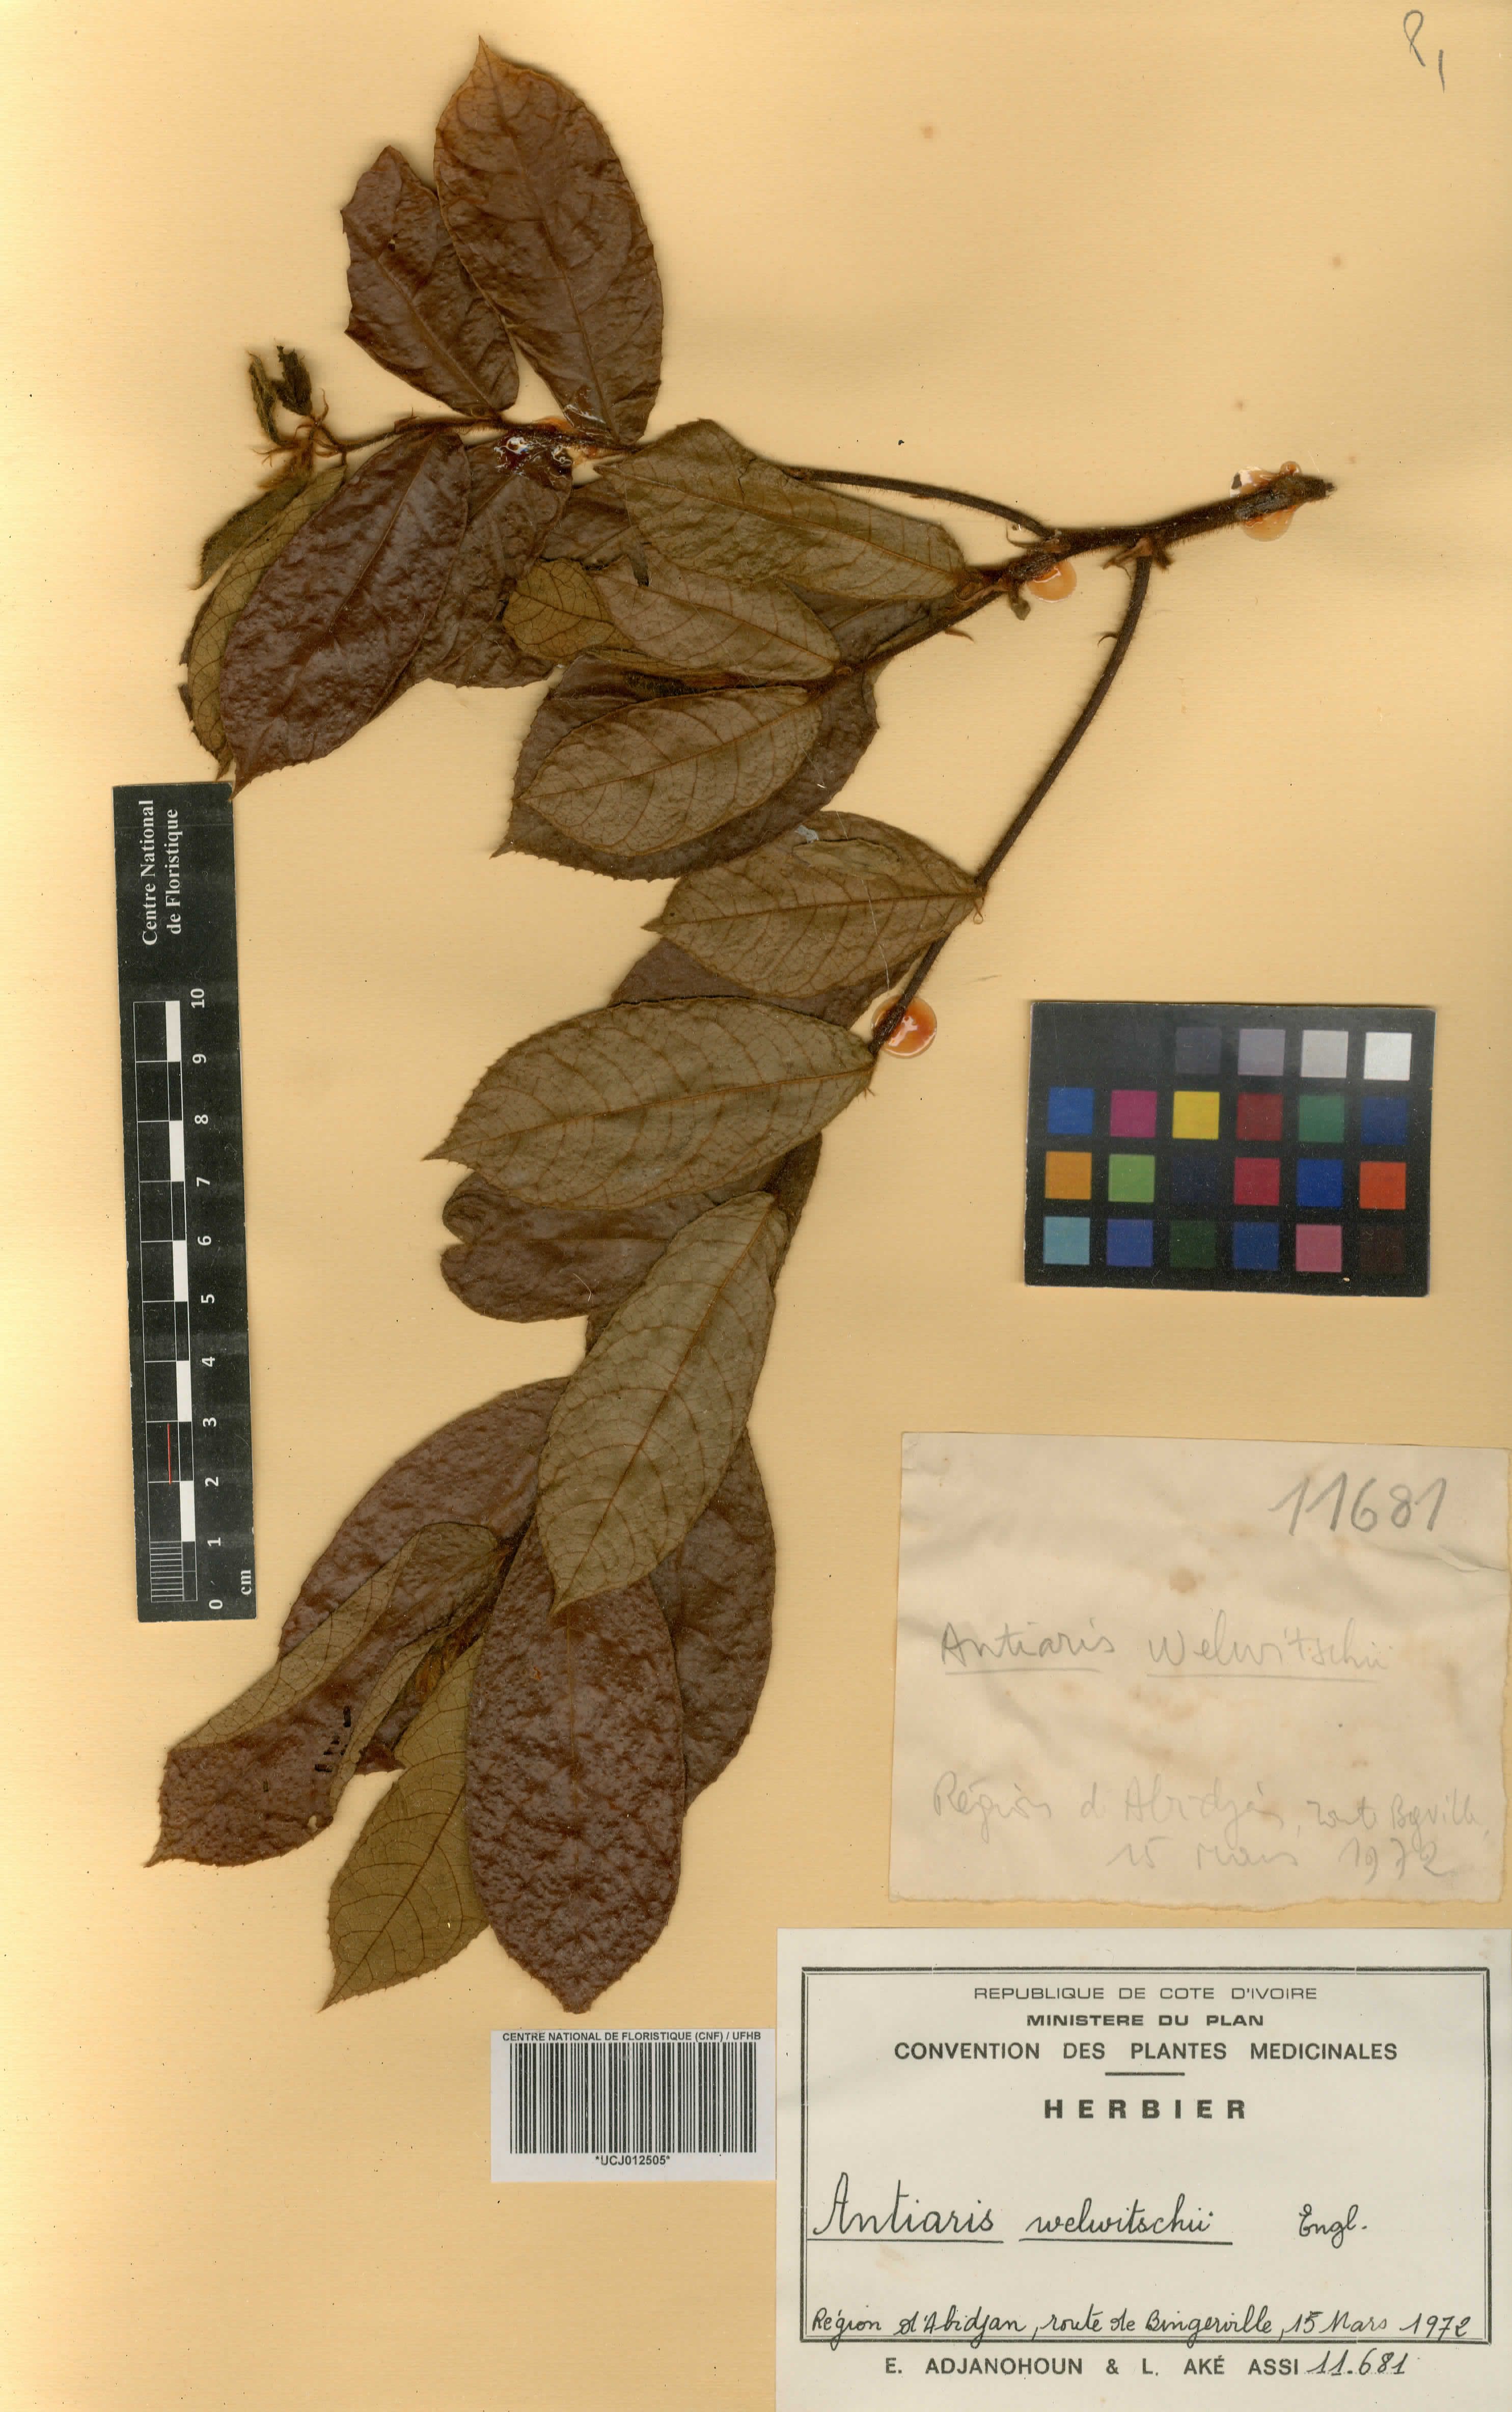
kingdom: Plantae
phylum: Tracheophyta
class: Magnoliopsida
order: Rosales
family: Moraceae
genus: Antiaris
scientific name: Antiaris toxicaria
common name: Sackingtree
